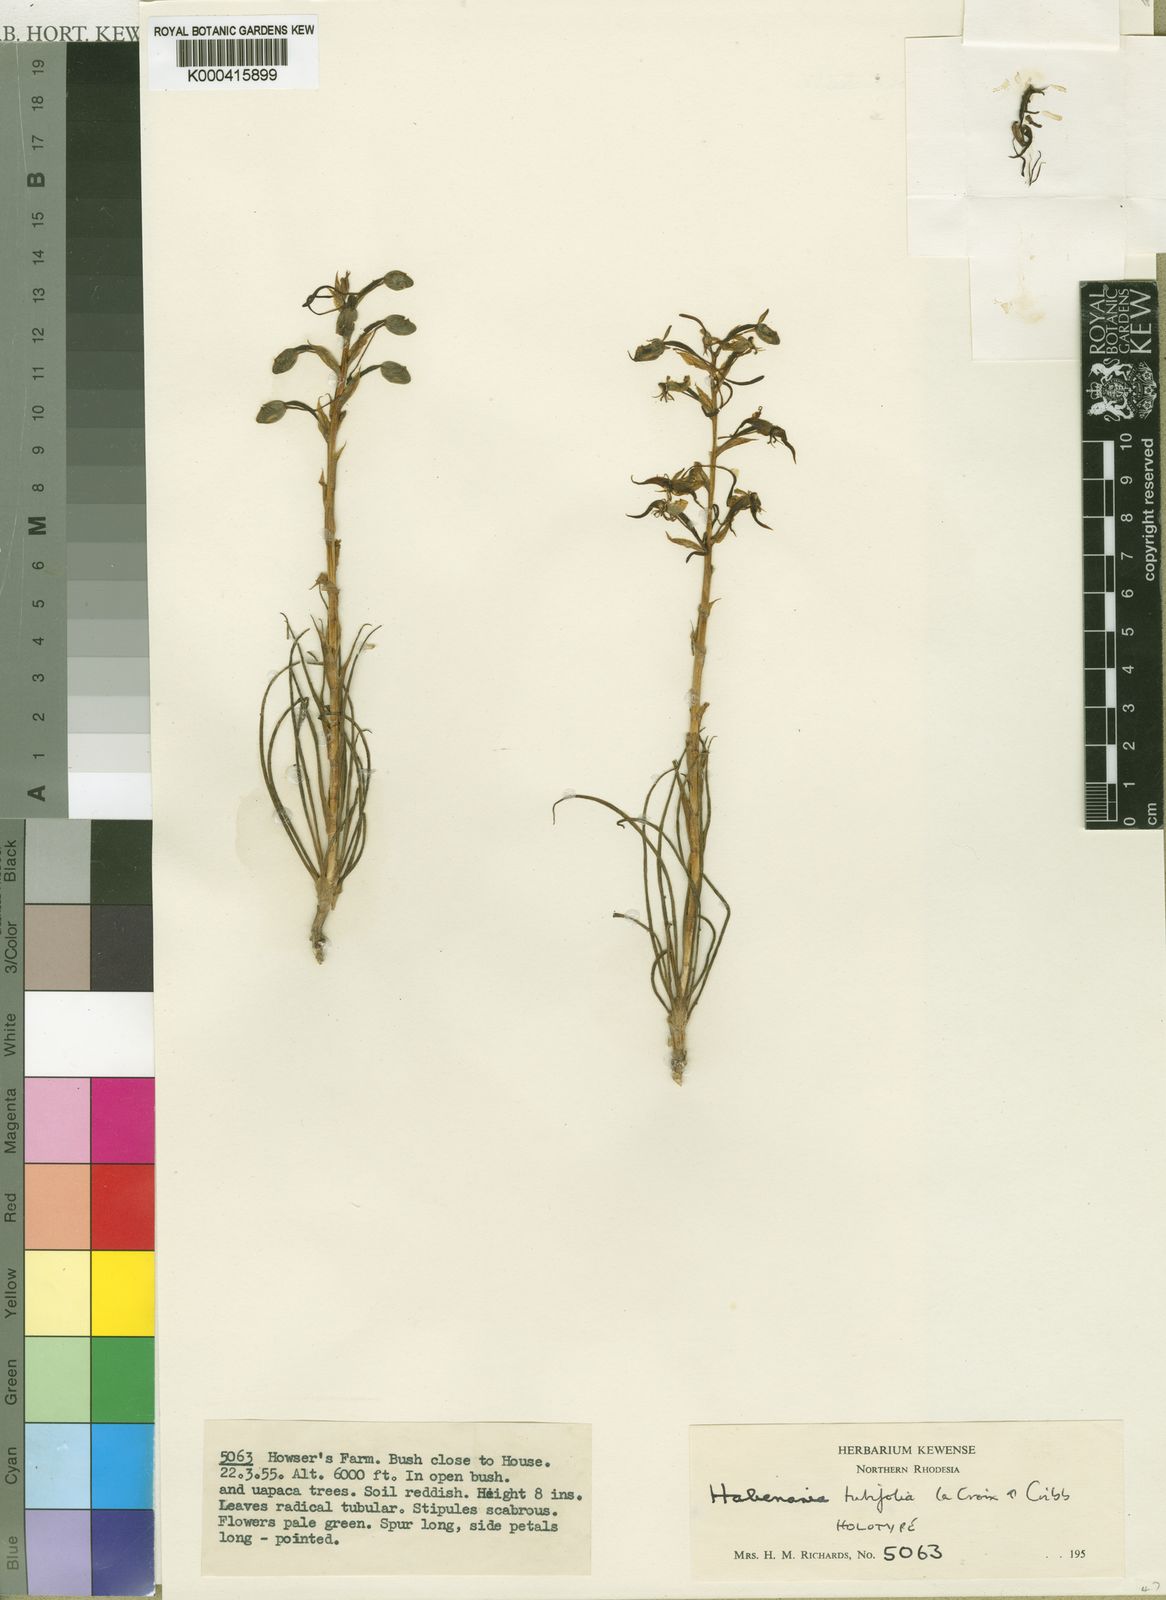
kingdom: Plantae
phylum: Tracheophyta
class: Liliopsida
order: Asparagales
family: Orchidaceae
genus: Habenaria
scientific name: Habenaria tubifolia
